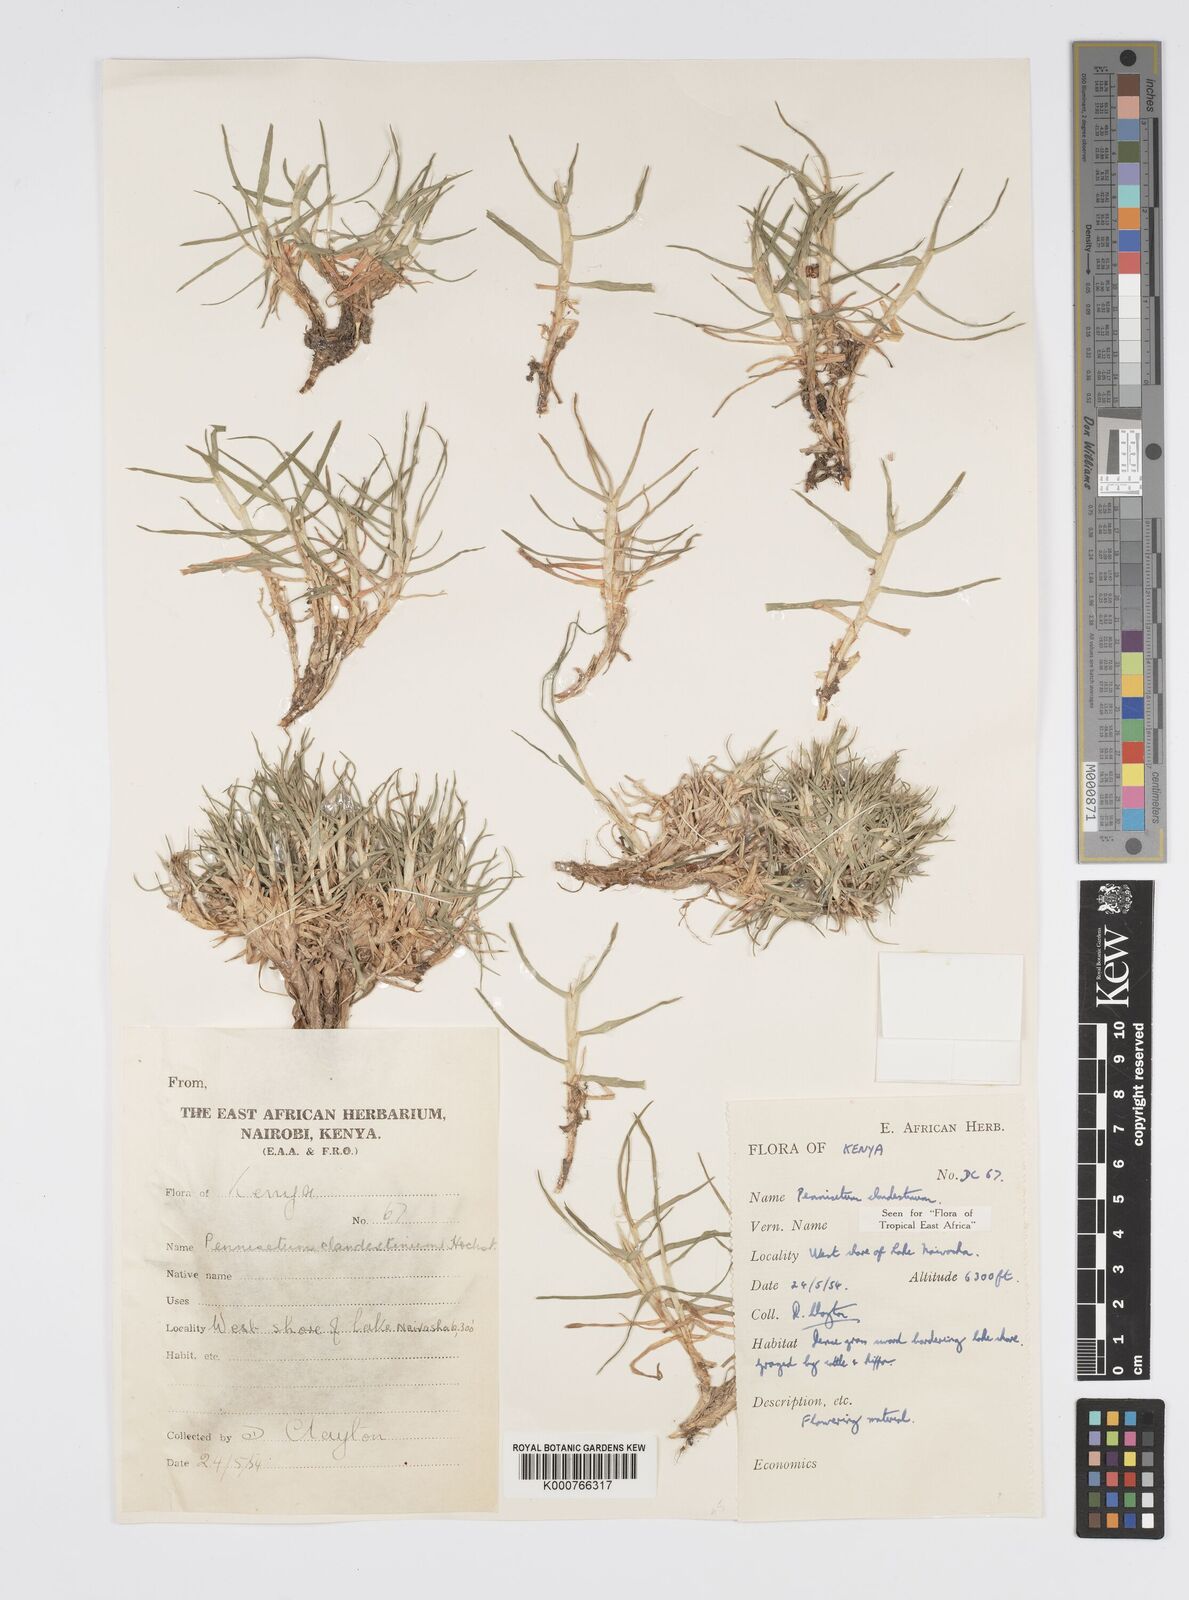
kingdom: Plantae
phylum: Tracheophyta
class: Liliopsida
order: Poales
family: Poaceae
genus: Cenchrus
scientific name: Cenchrus clandestinus
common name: Kikuyugrass
